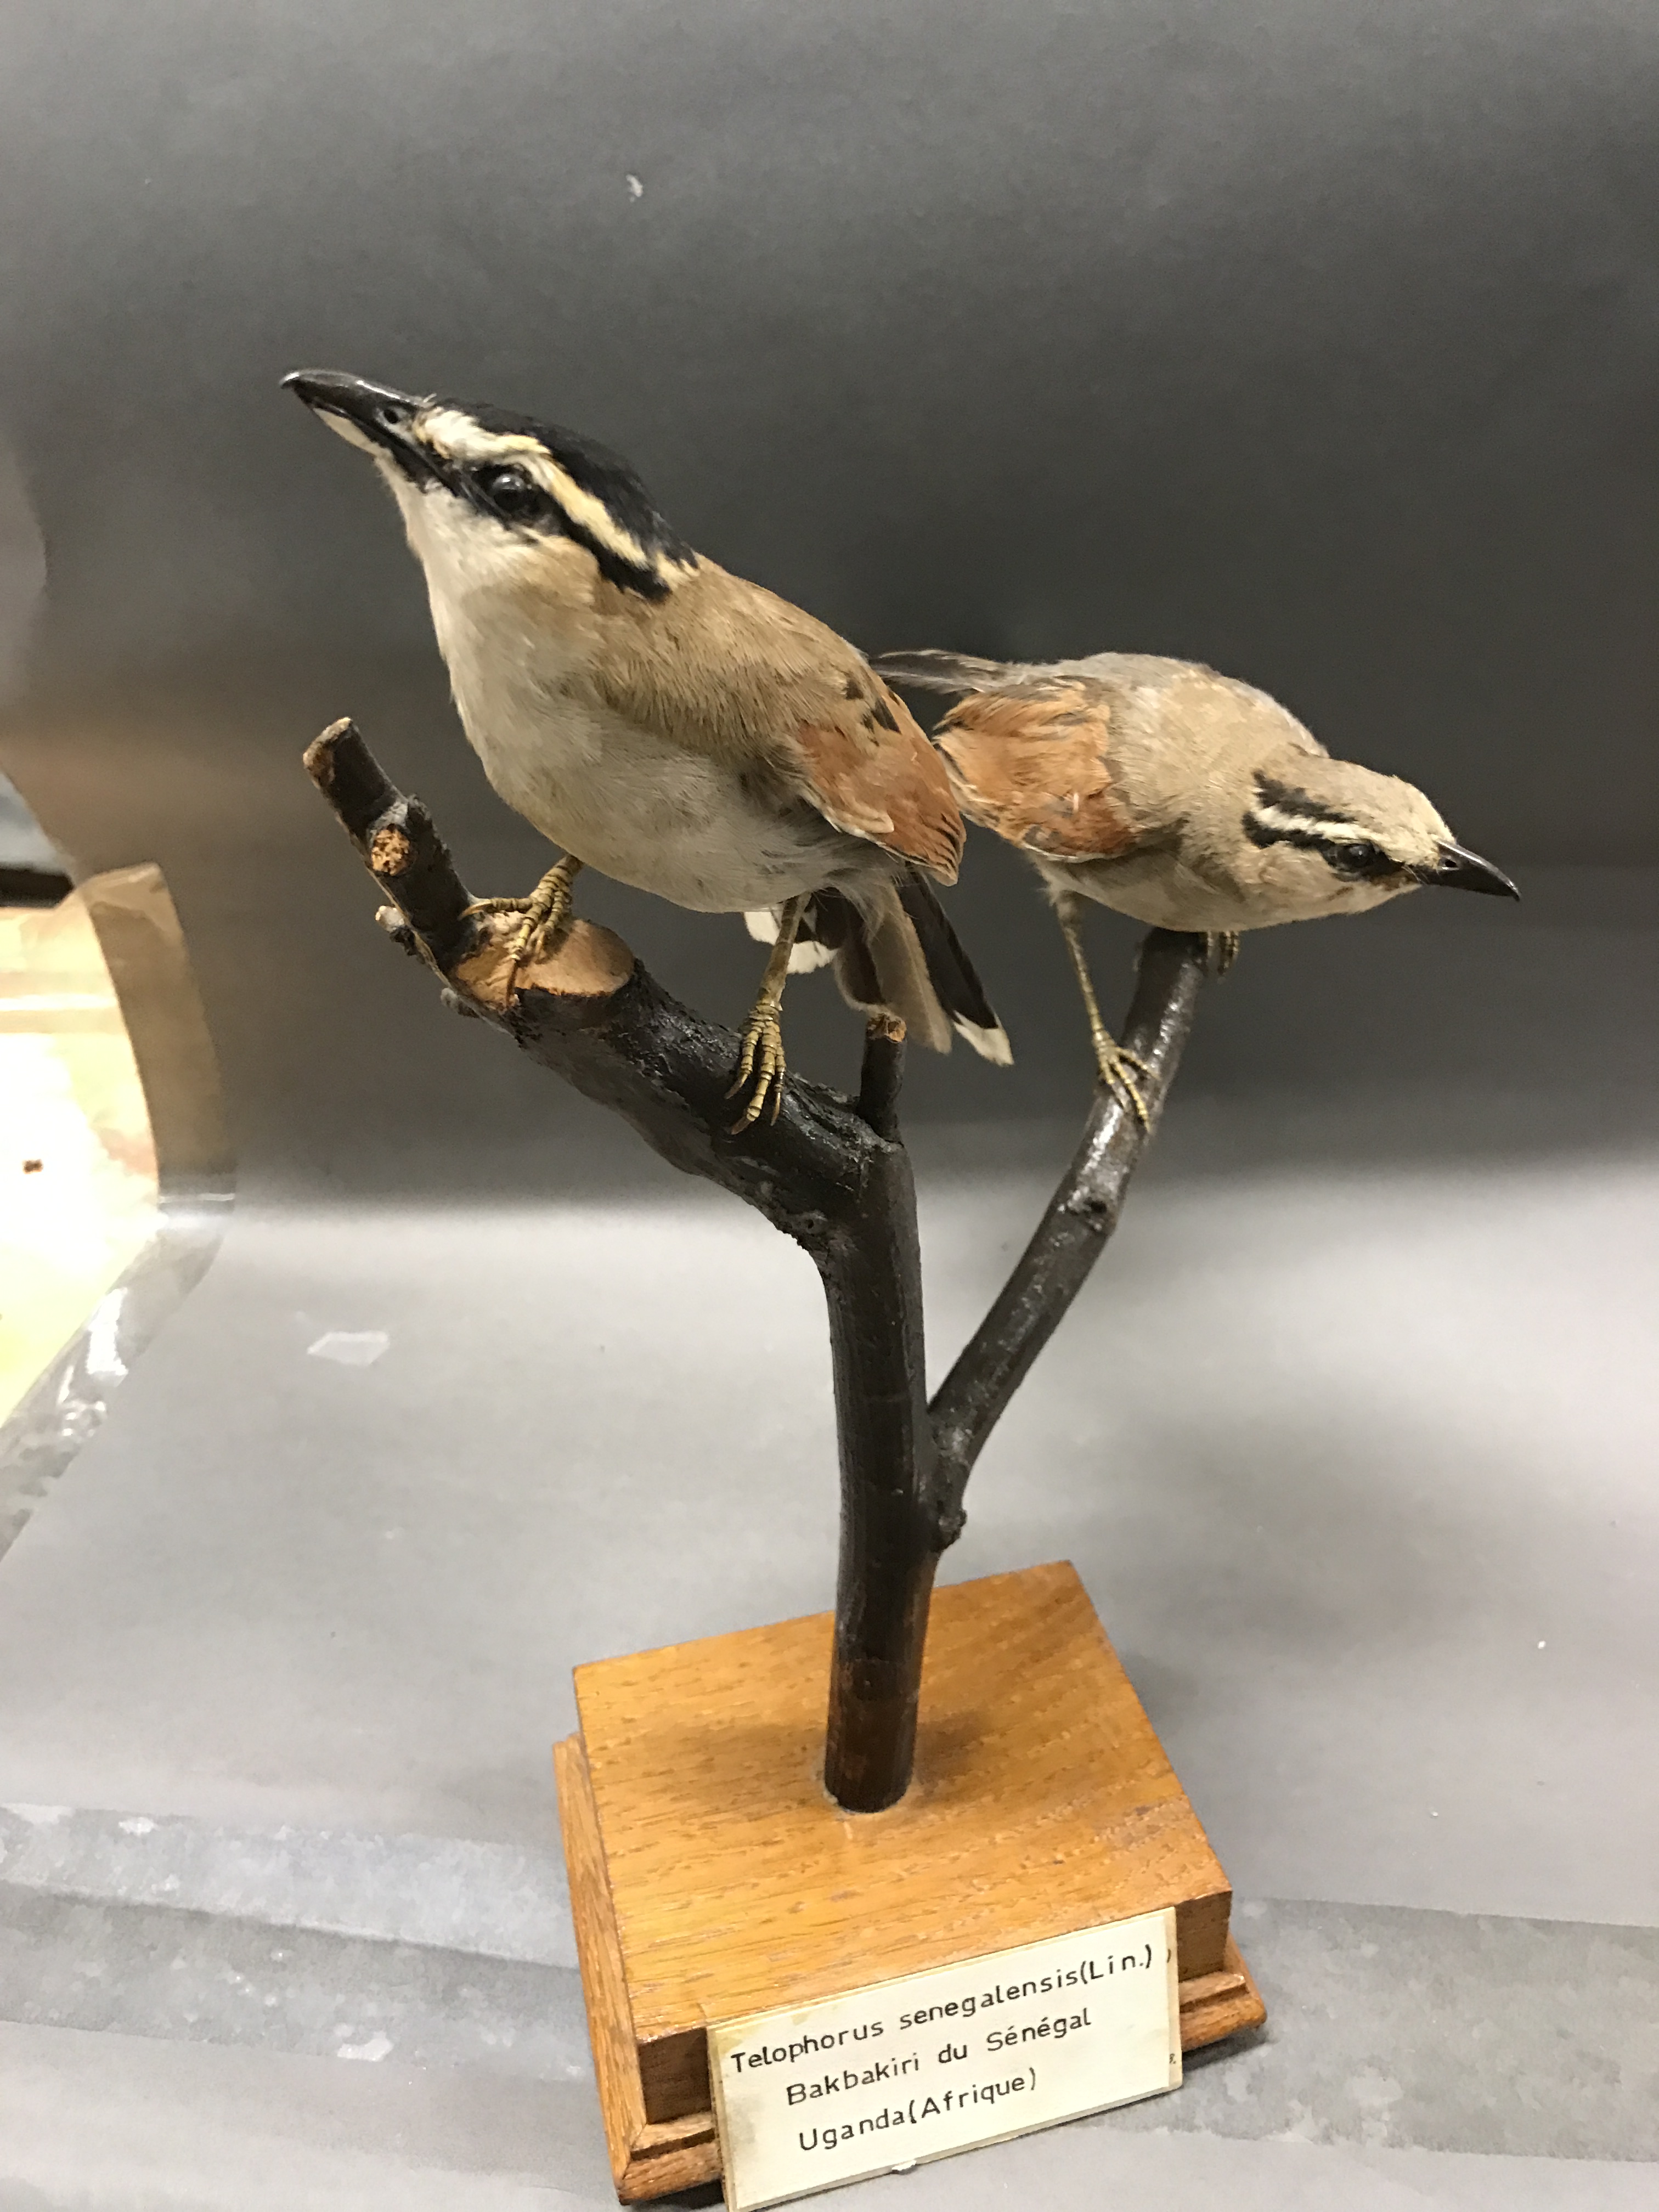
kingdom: Animalia
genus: Tchagra
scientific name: Tchagra senegala
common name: Black-headed tchagra
